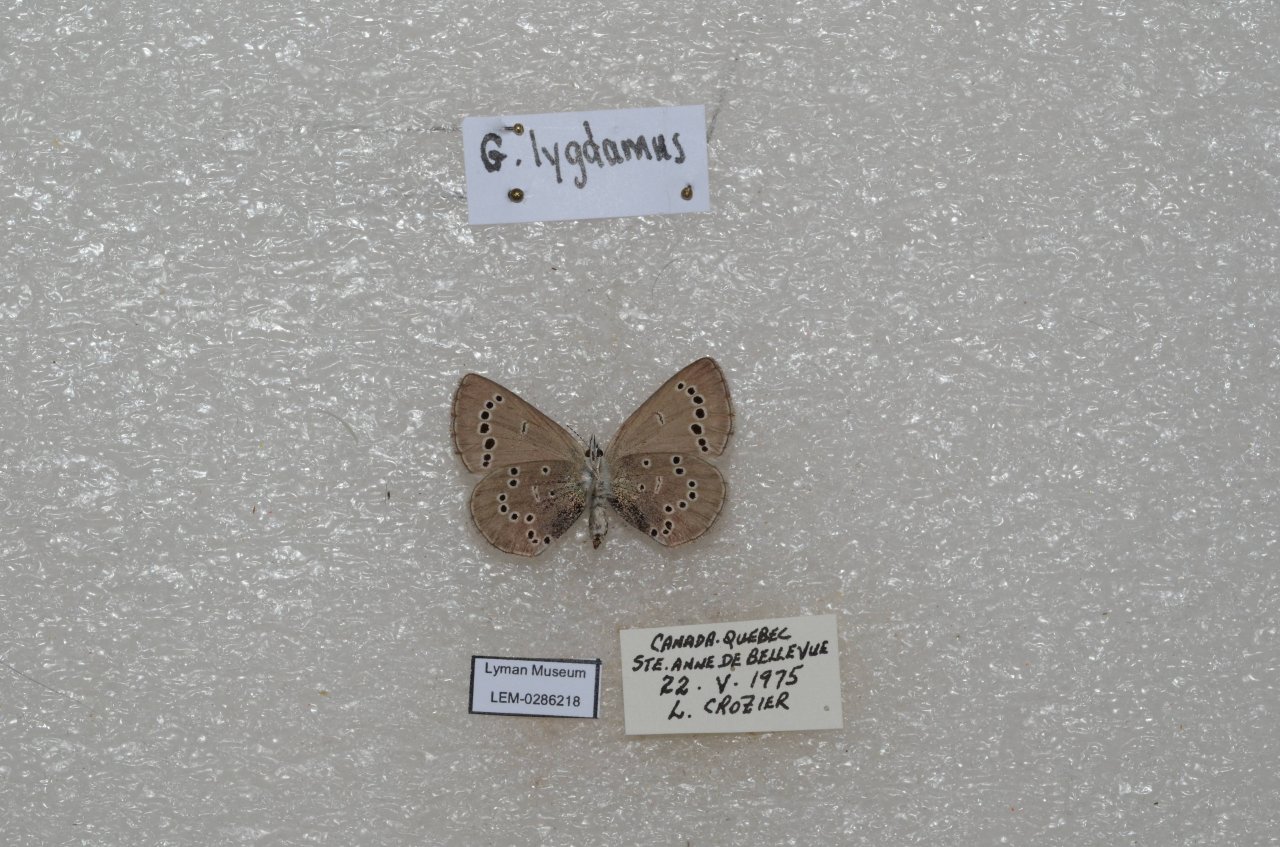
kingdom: Animalia
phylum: Arthropoda
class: Insecta
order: Lepidoptera
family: Lycaenidae
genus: Glaucopsyche
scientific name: Glaucopsyche lygdamus
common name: Silvery Blue
